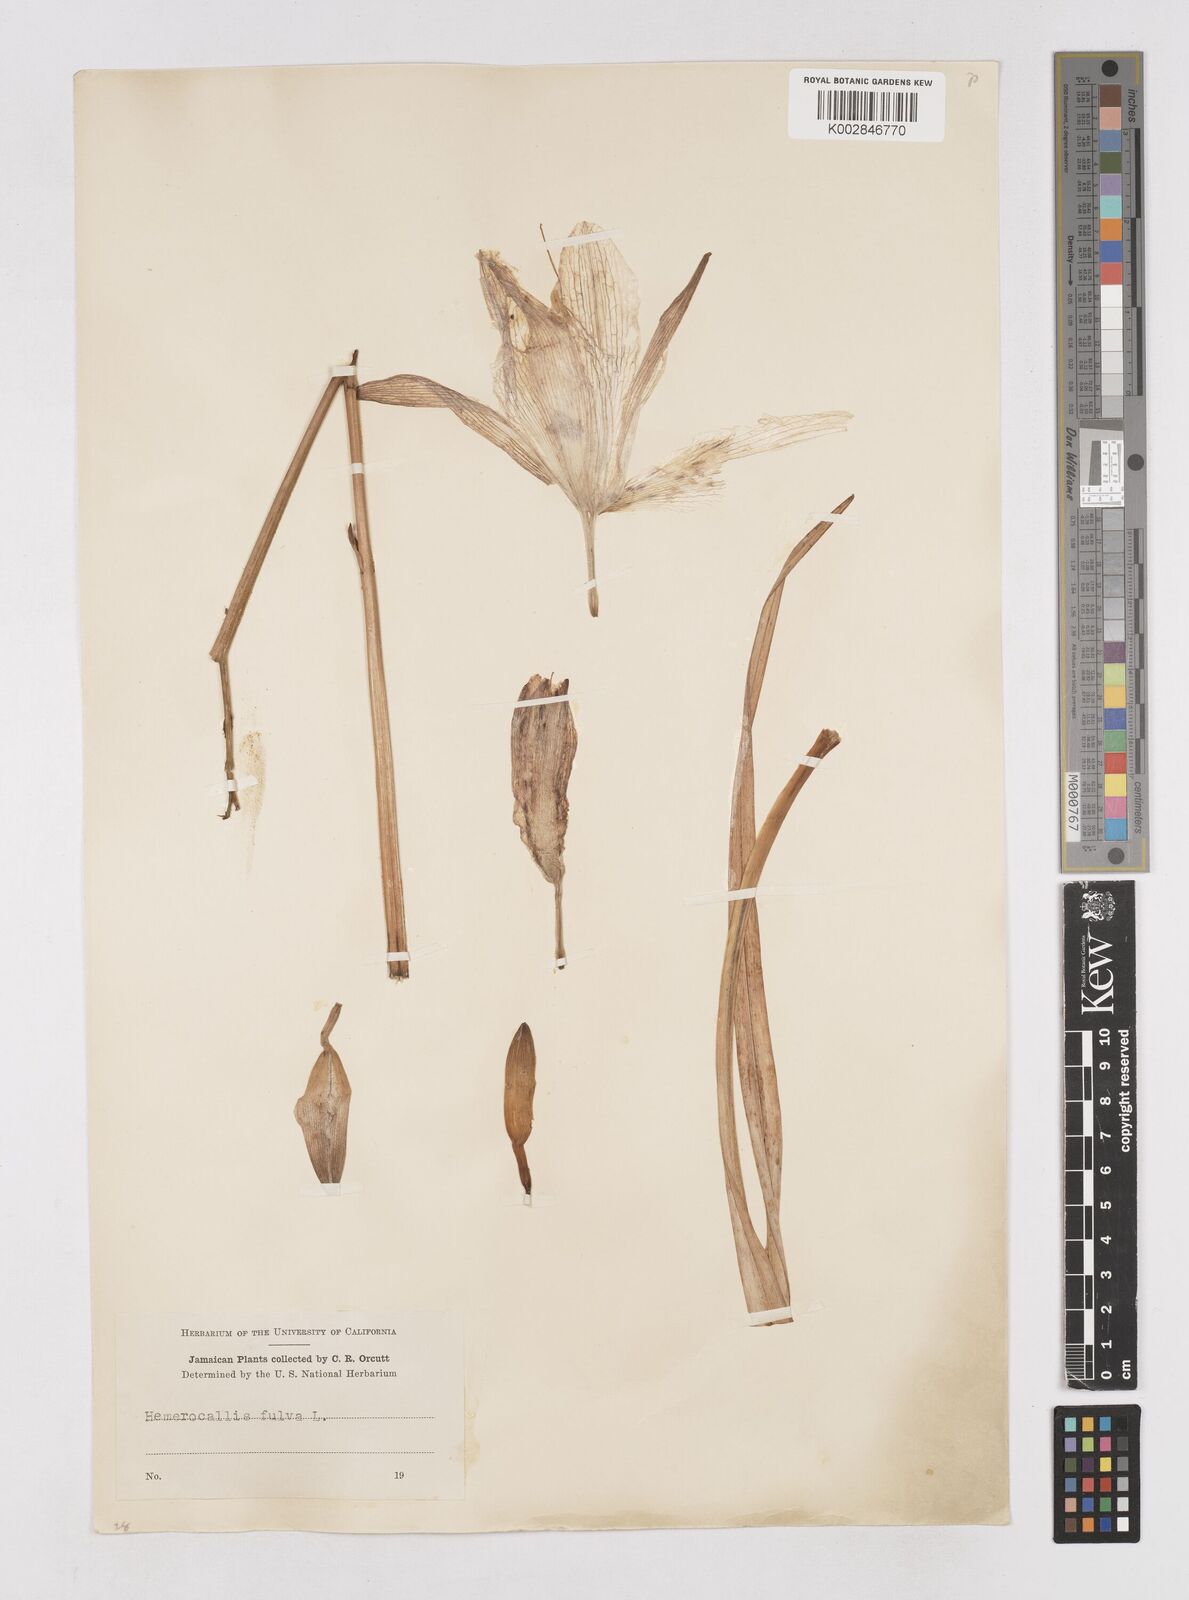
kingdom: Plantae
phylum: Tracheophyta
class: Liliopsida
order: Asparagales
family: Asphodelaceae
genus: Hemerocallis
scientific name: Hemerocallis fulva
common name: Orange day-lily
